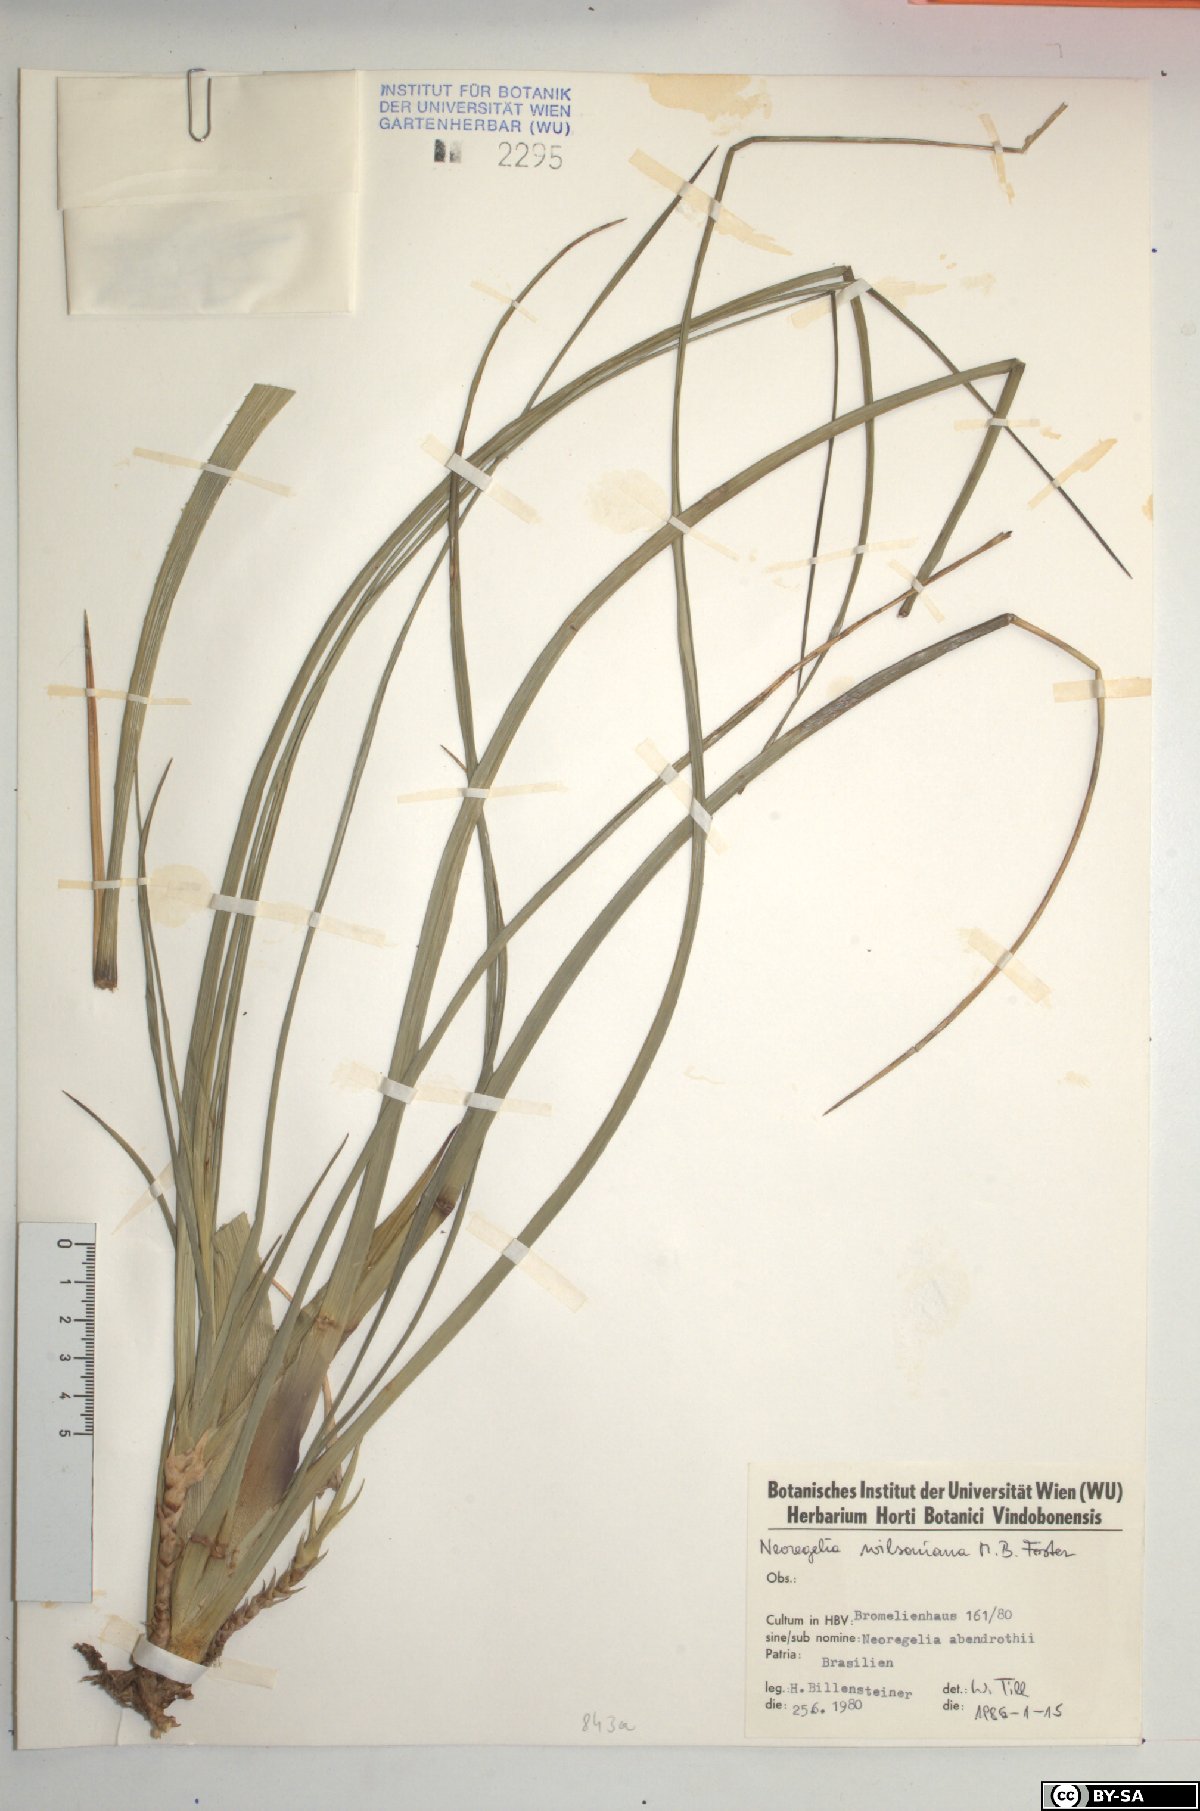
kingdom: Plantae
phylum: Tracheophyta
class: Liliopsida
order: Poales
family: Bromeliaceae
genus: Neoregelia
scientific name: Neoregelia wilsoniana
